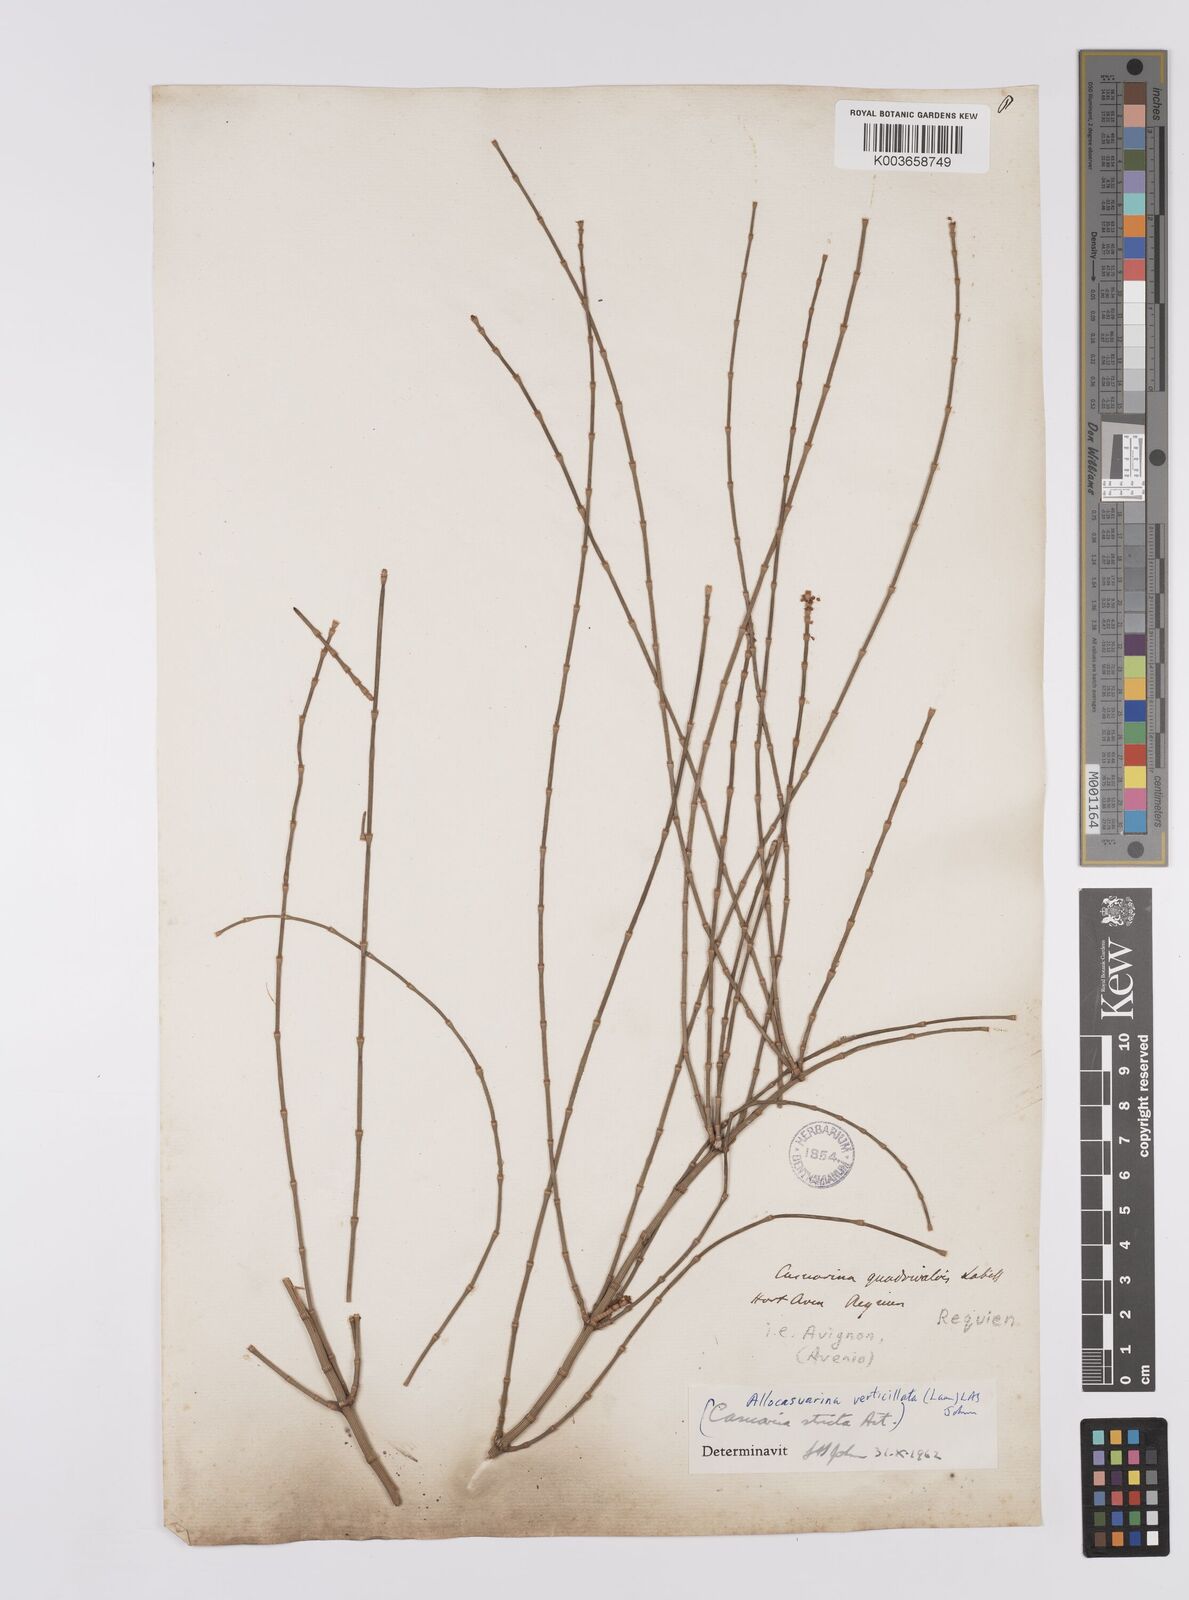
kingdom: Plantae
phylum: Tracheophyta
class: Magnoliopsida
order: Fagales
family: Casuarinaceae
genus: Allocasuarina
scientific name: Allocasuarina verticillata
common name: Drooping she-oak
